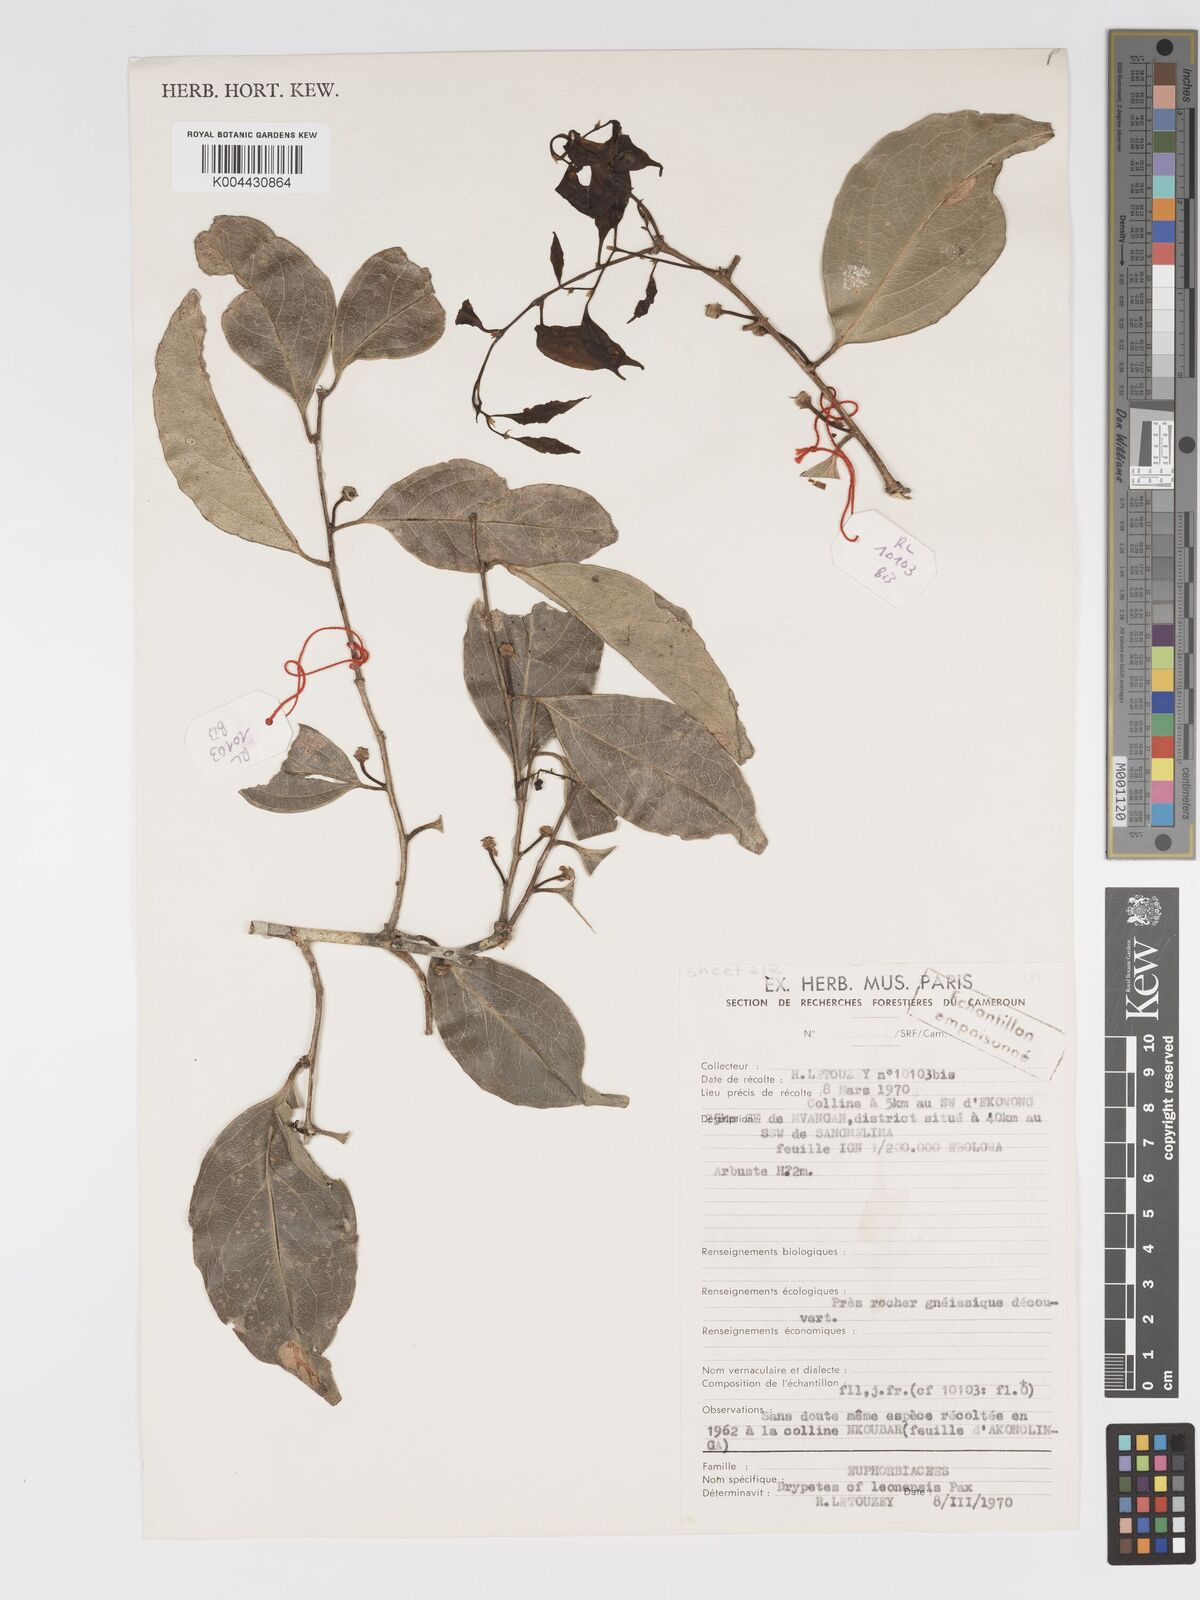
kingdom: Plantae
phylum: Tracheophyta
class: Magnoliopsida
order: Malpighiales
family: Putranjivaceae
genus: Drypetes
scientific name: Drypetes
